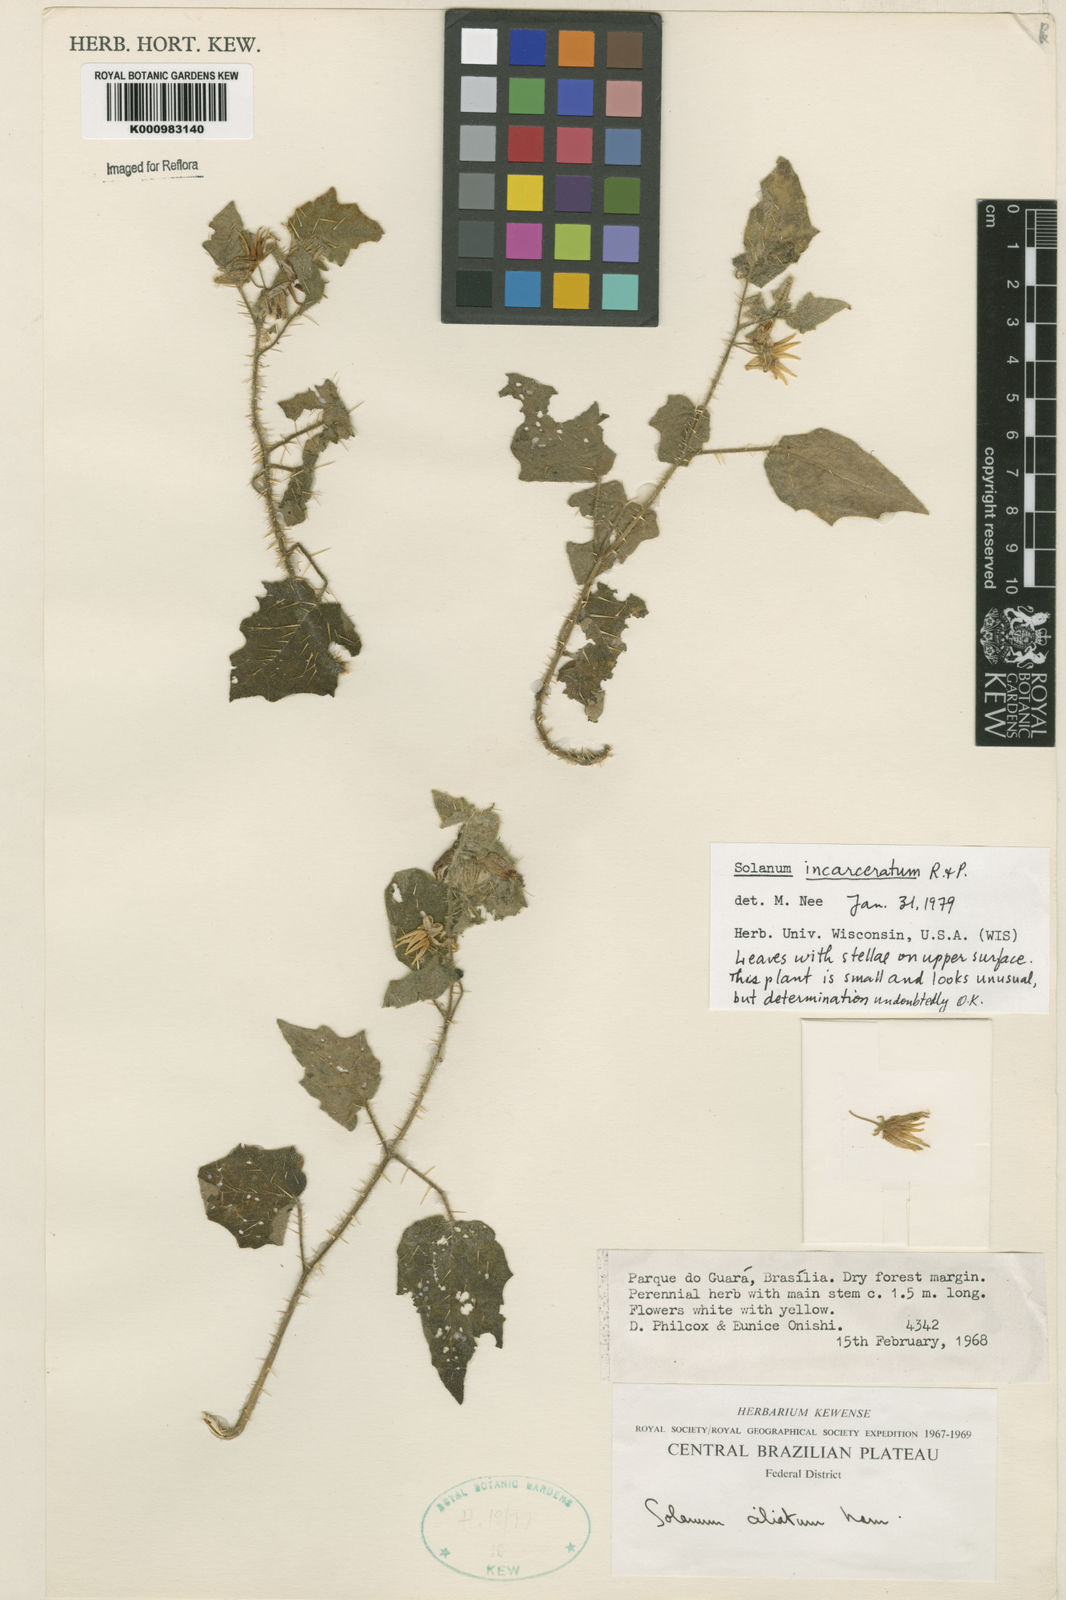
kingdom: Plantae
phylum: Tracheophyta
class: Magnoliopsida
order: Solanales
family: Solanaceae
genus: Solanum
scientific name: Solanum incarceratum
